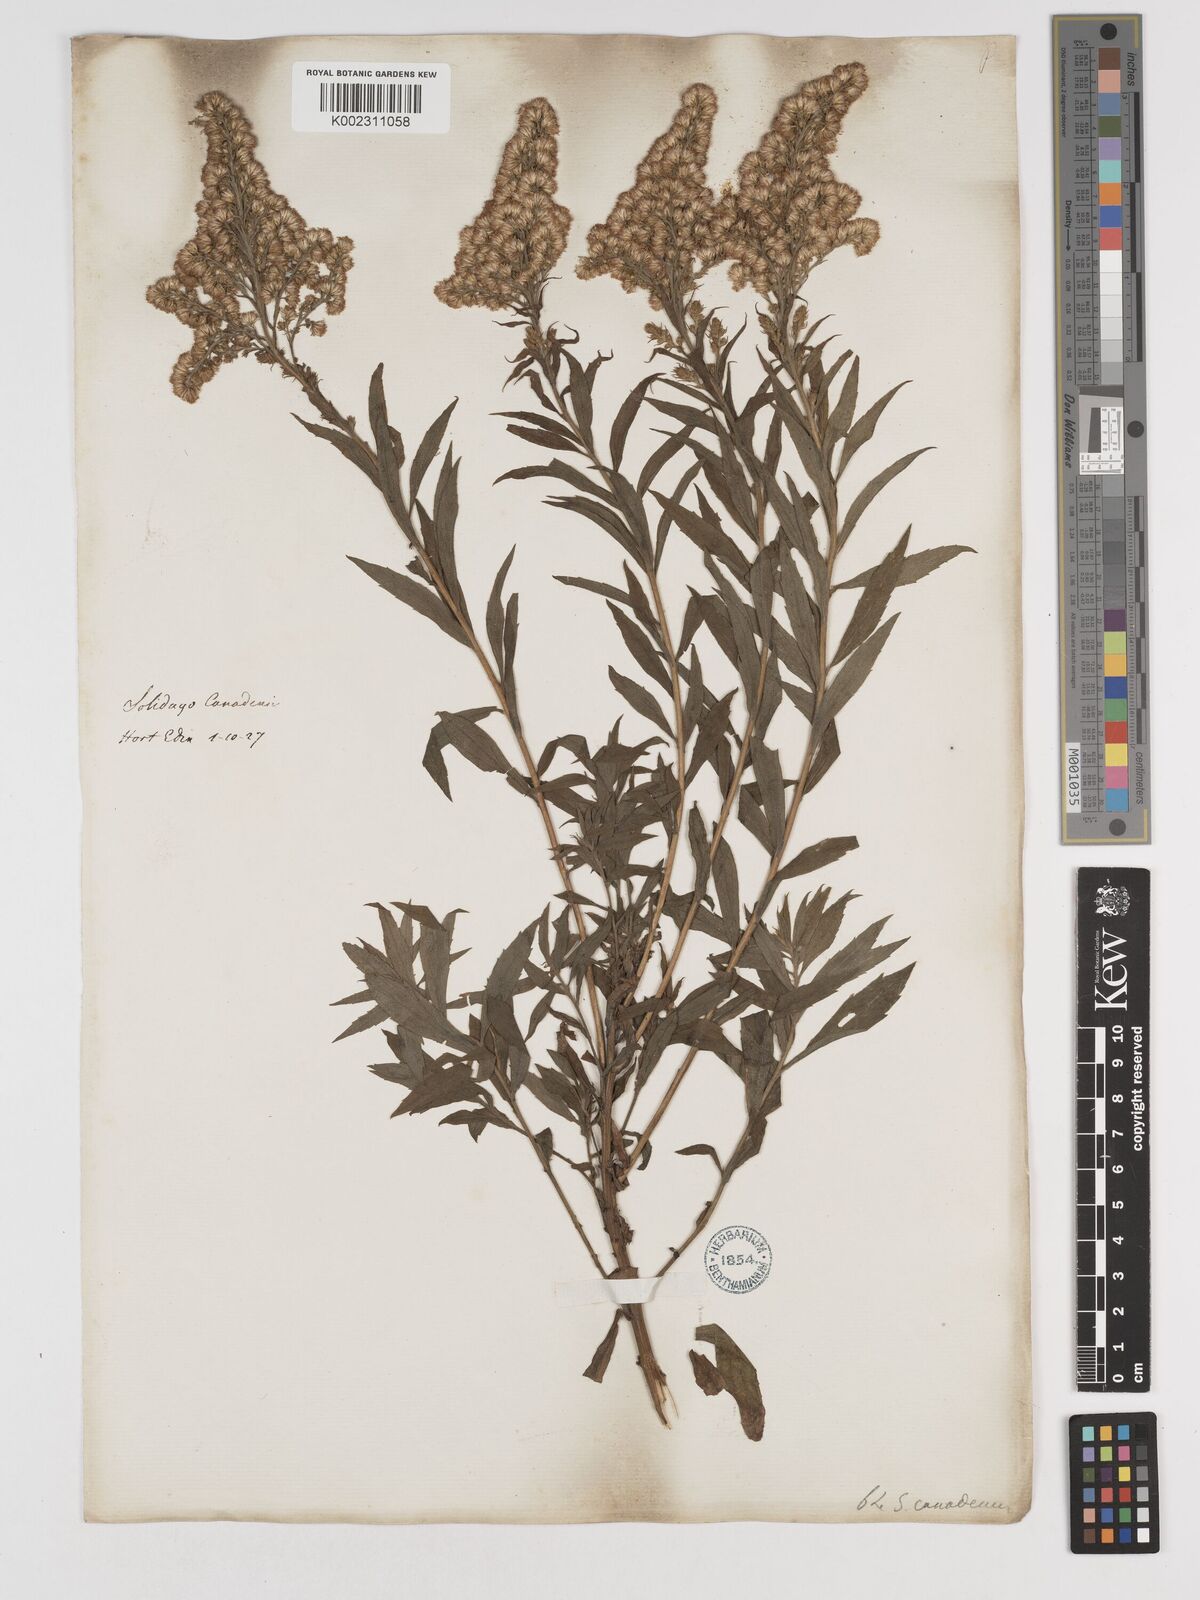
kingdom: Plantae
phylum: Tracheophyta
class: Magnoliopsida
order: Asterales
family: Asteraceae
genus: Solidago
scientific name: Solidago canadensis
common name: Canada goldenrod
